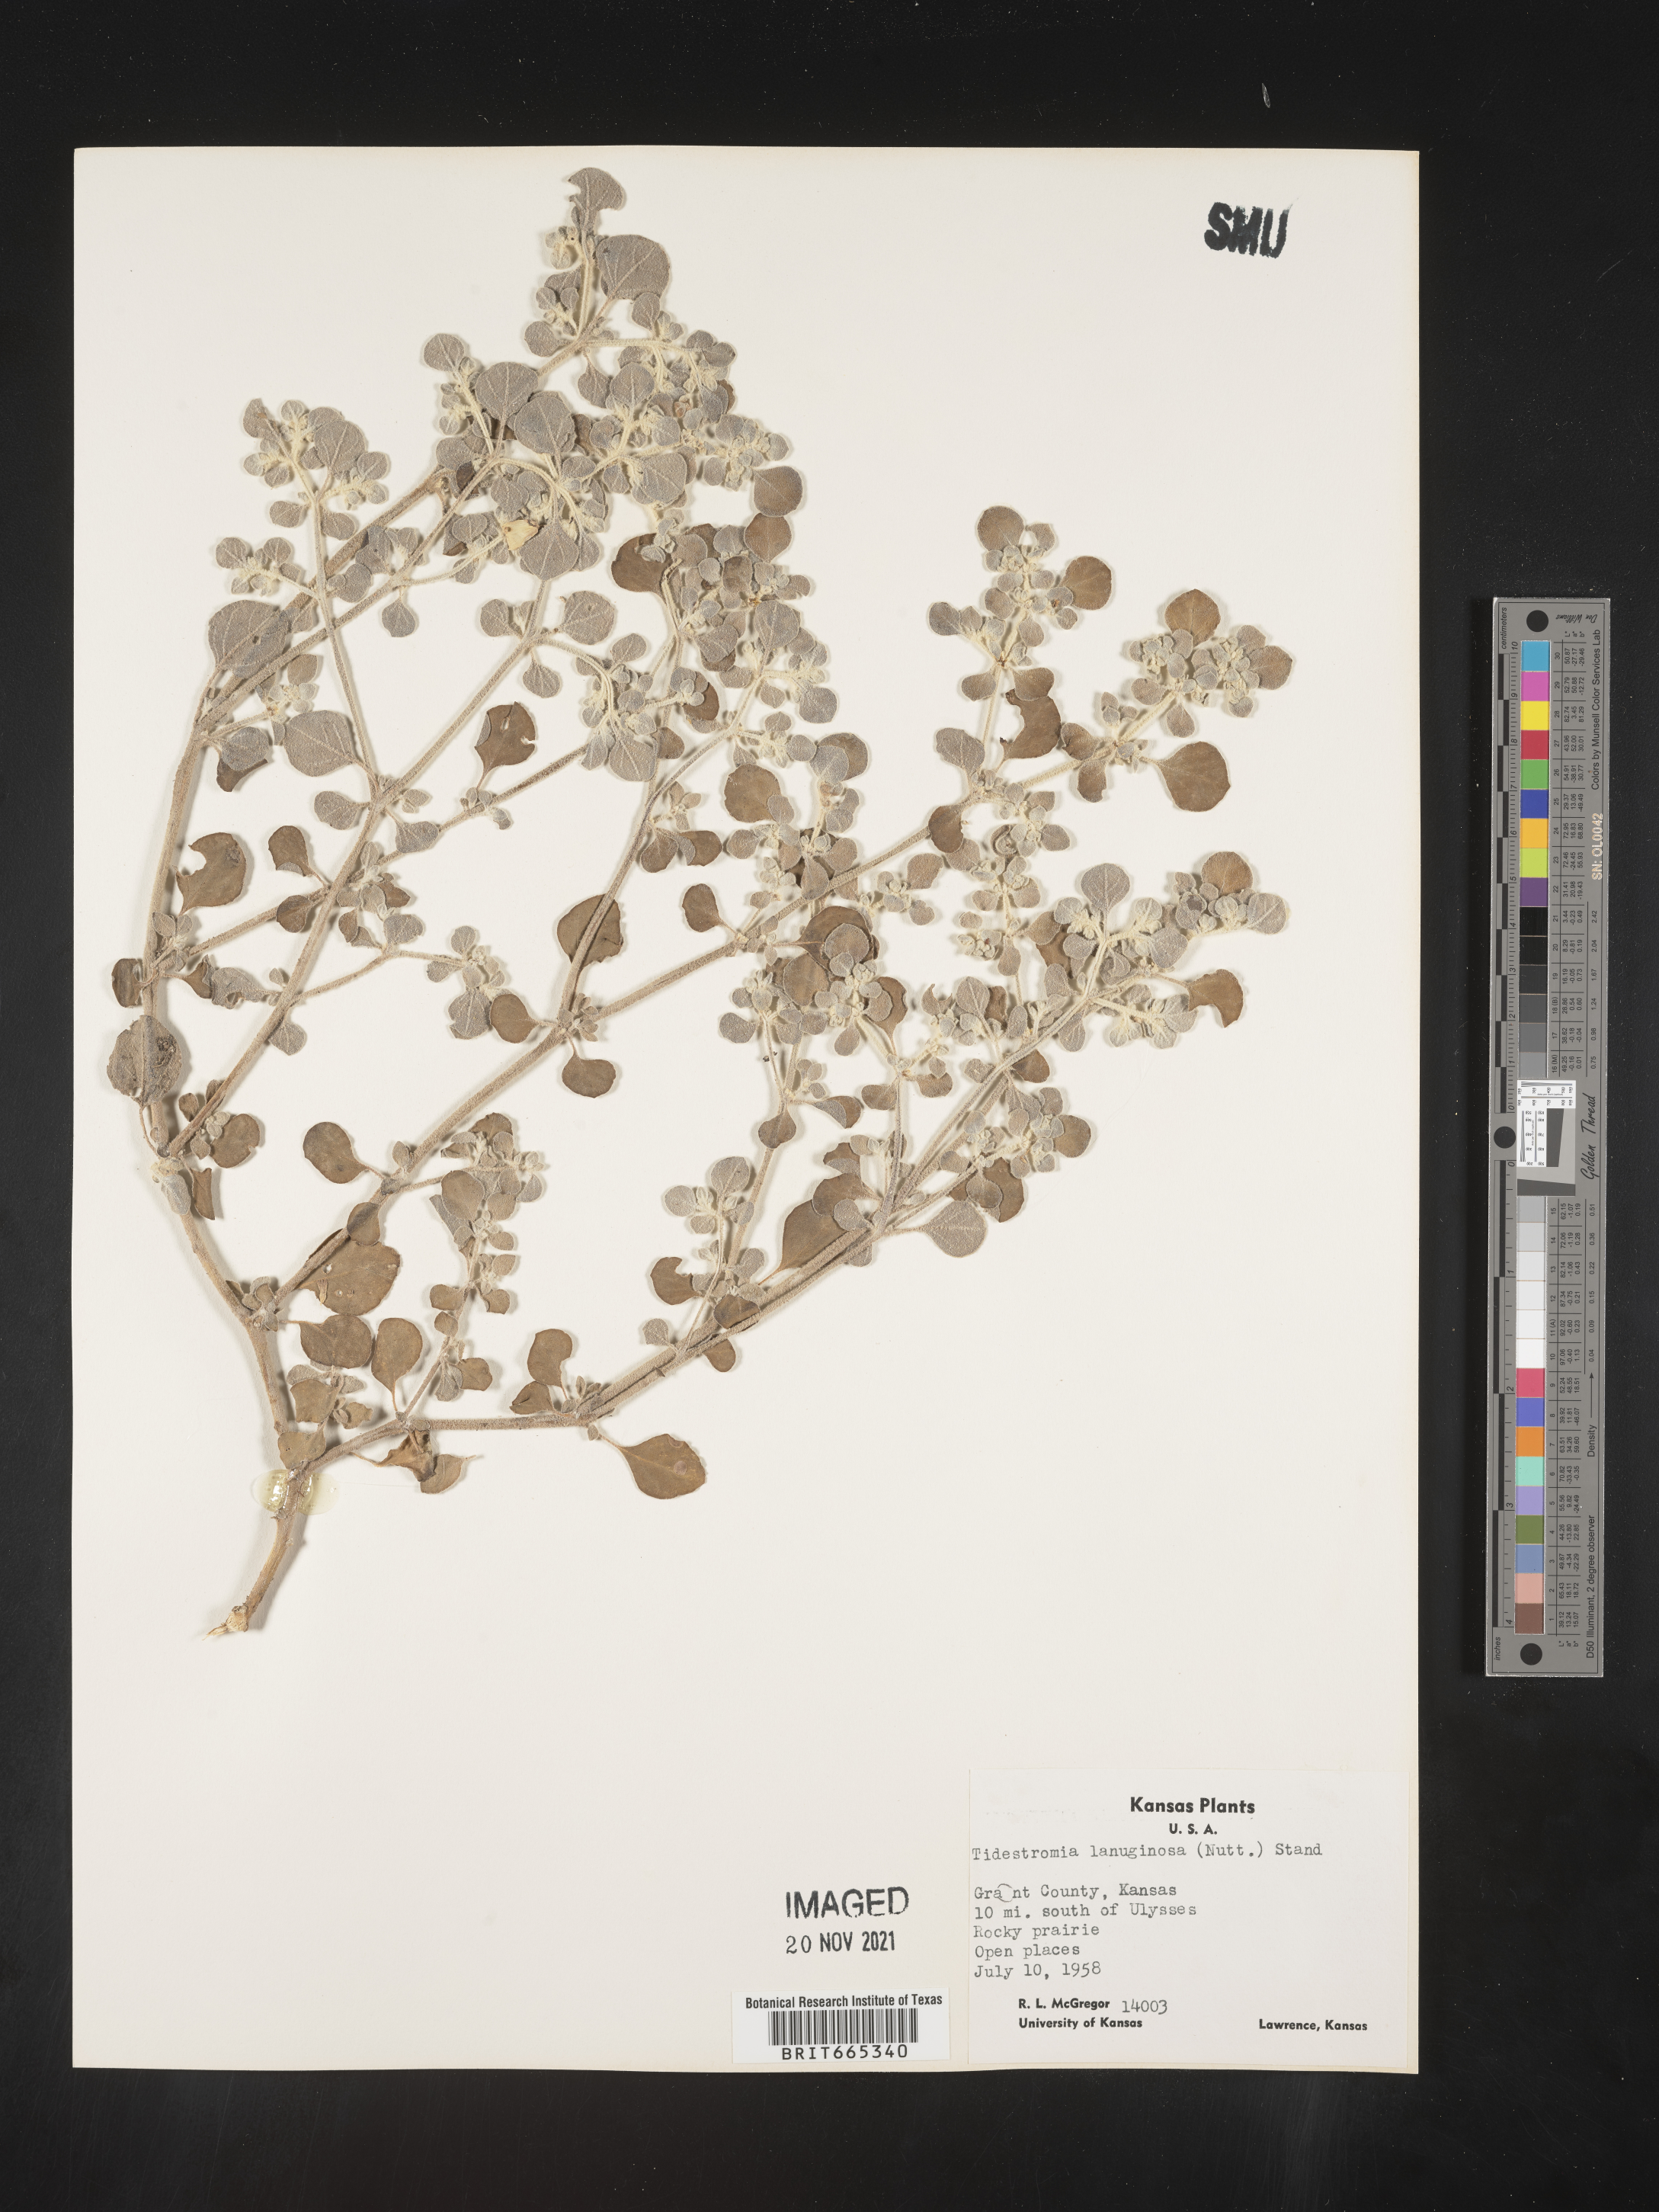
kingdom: Plantae
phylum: Tracheophyta
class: Magnoliopsida
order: Caryophyllales
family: Amaranthaceae
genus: Tidestromia
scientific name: Tidestromia lanuginosa
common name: Woolly tidestromia
